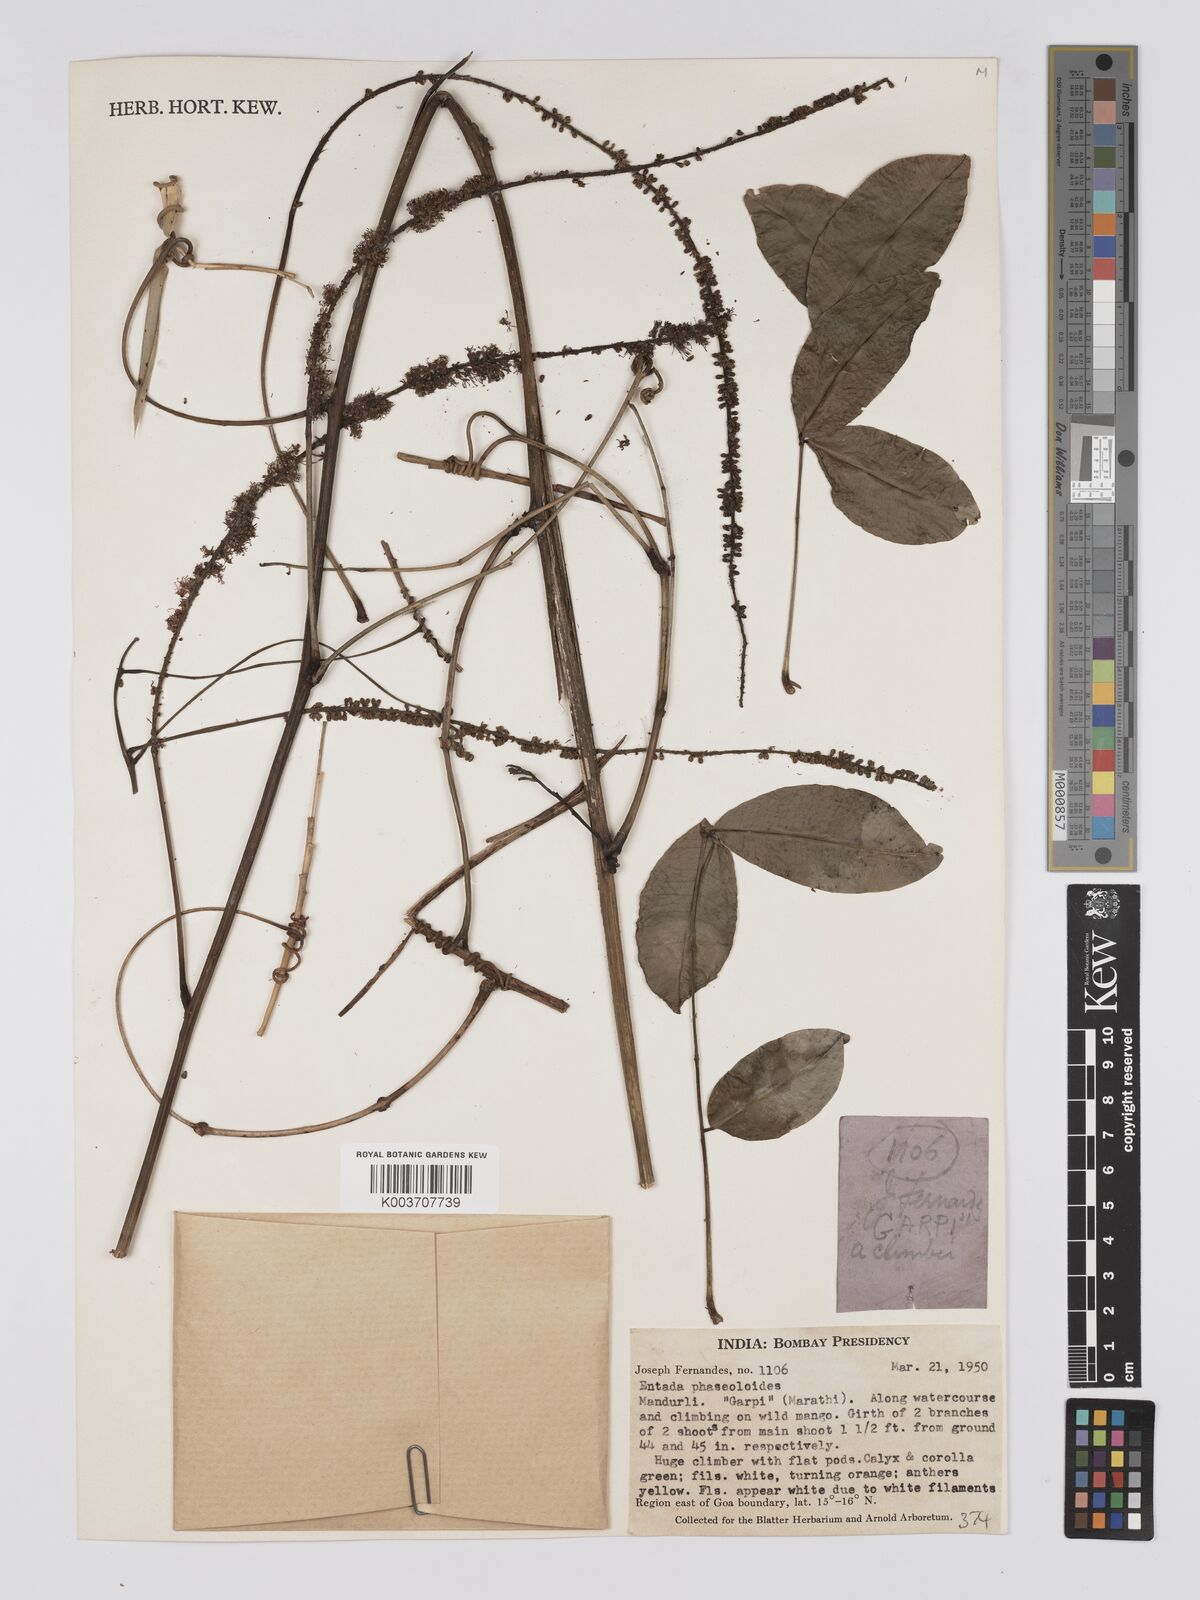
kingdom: Plantae
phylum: Tracheophyta
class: Magnoliopsida
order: Fabales
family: Fabaceae
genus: Entada
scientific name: Entada phaseoloides
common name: Matchbox-bean
